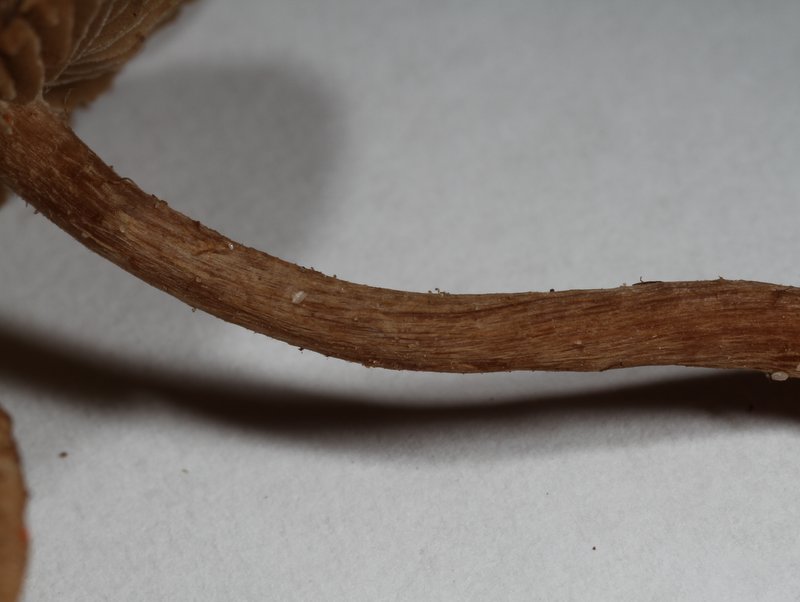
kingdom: Fungi
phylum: Basidiomycota
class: Agaricomycetes
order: Agaricales
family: Inocybaceae
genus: Inocybe
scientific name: Inocybe lacera
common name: laset trævlhat
